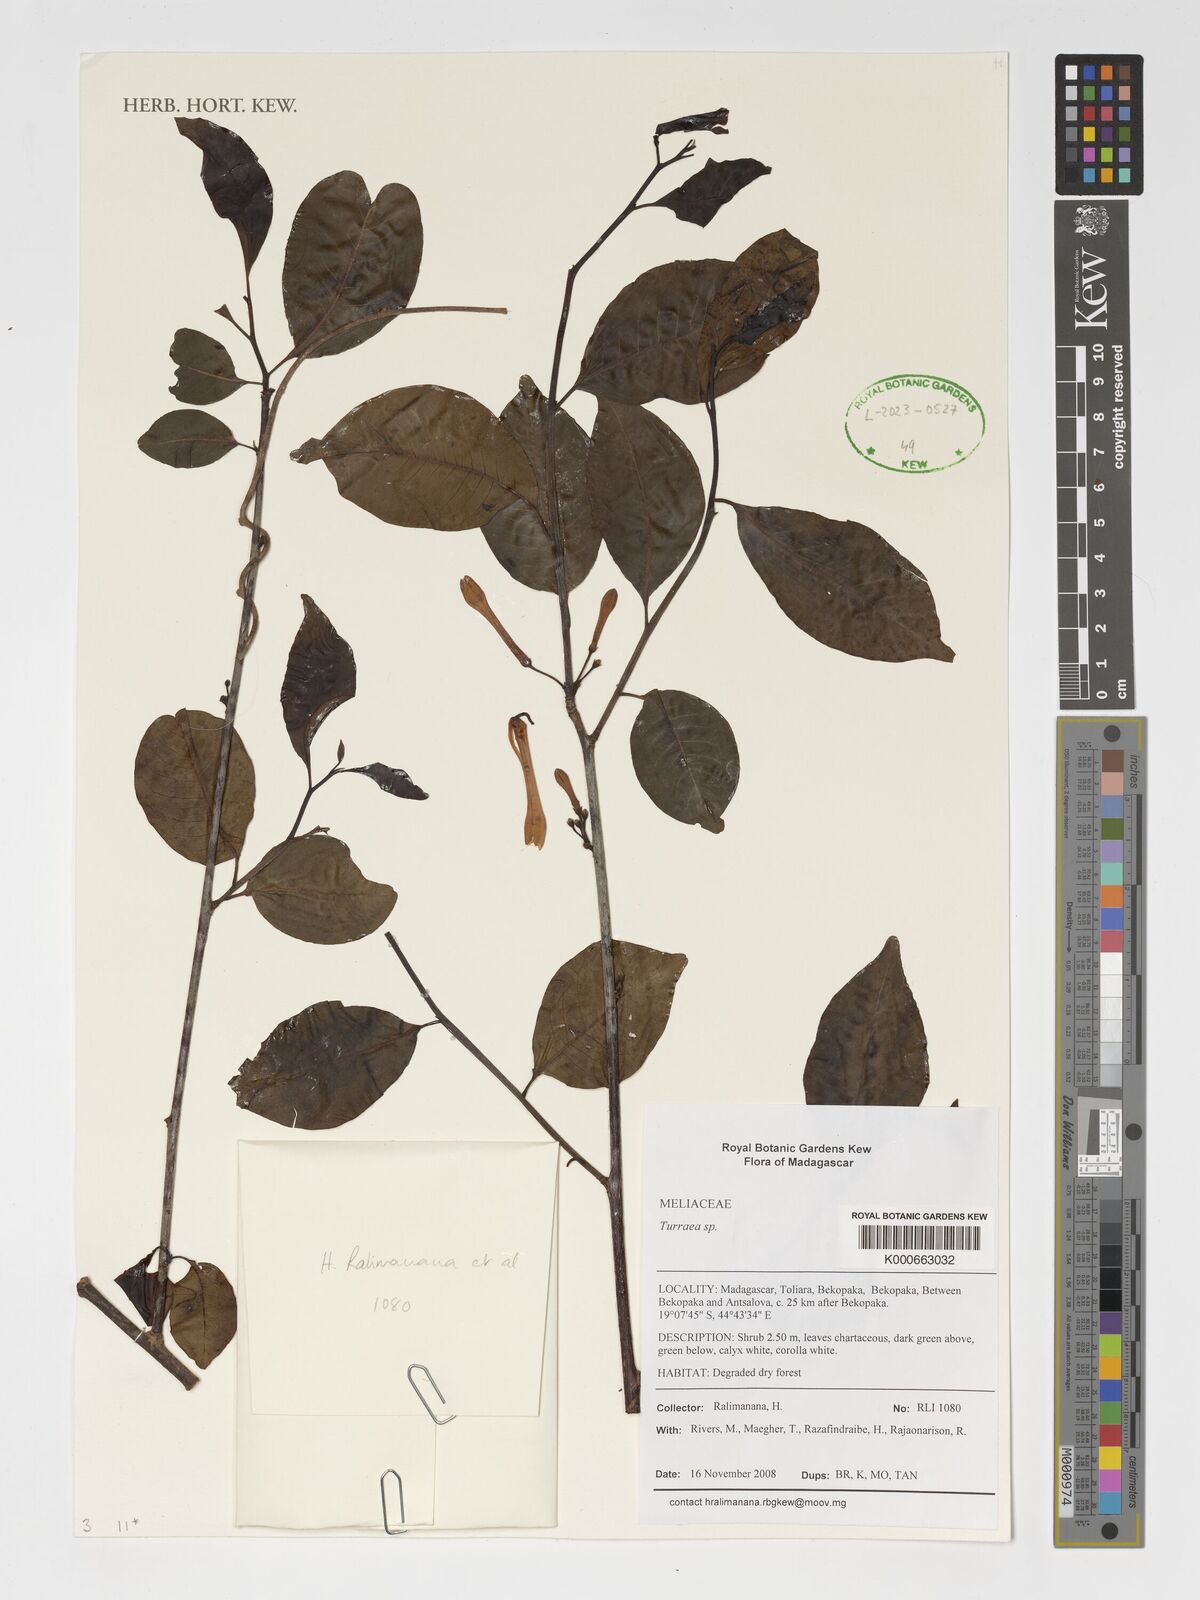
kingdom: Plantae
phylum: Tracheophyta
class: Magnoliopsida
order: Sapindales
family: Meliaceae
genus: Turraea
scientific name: Turraea
